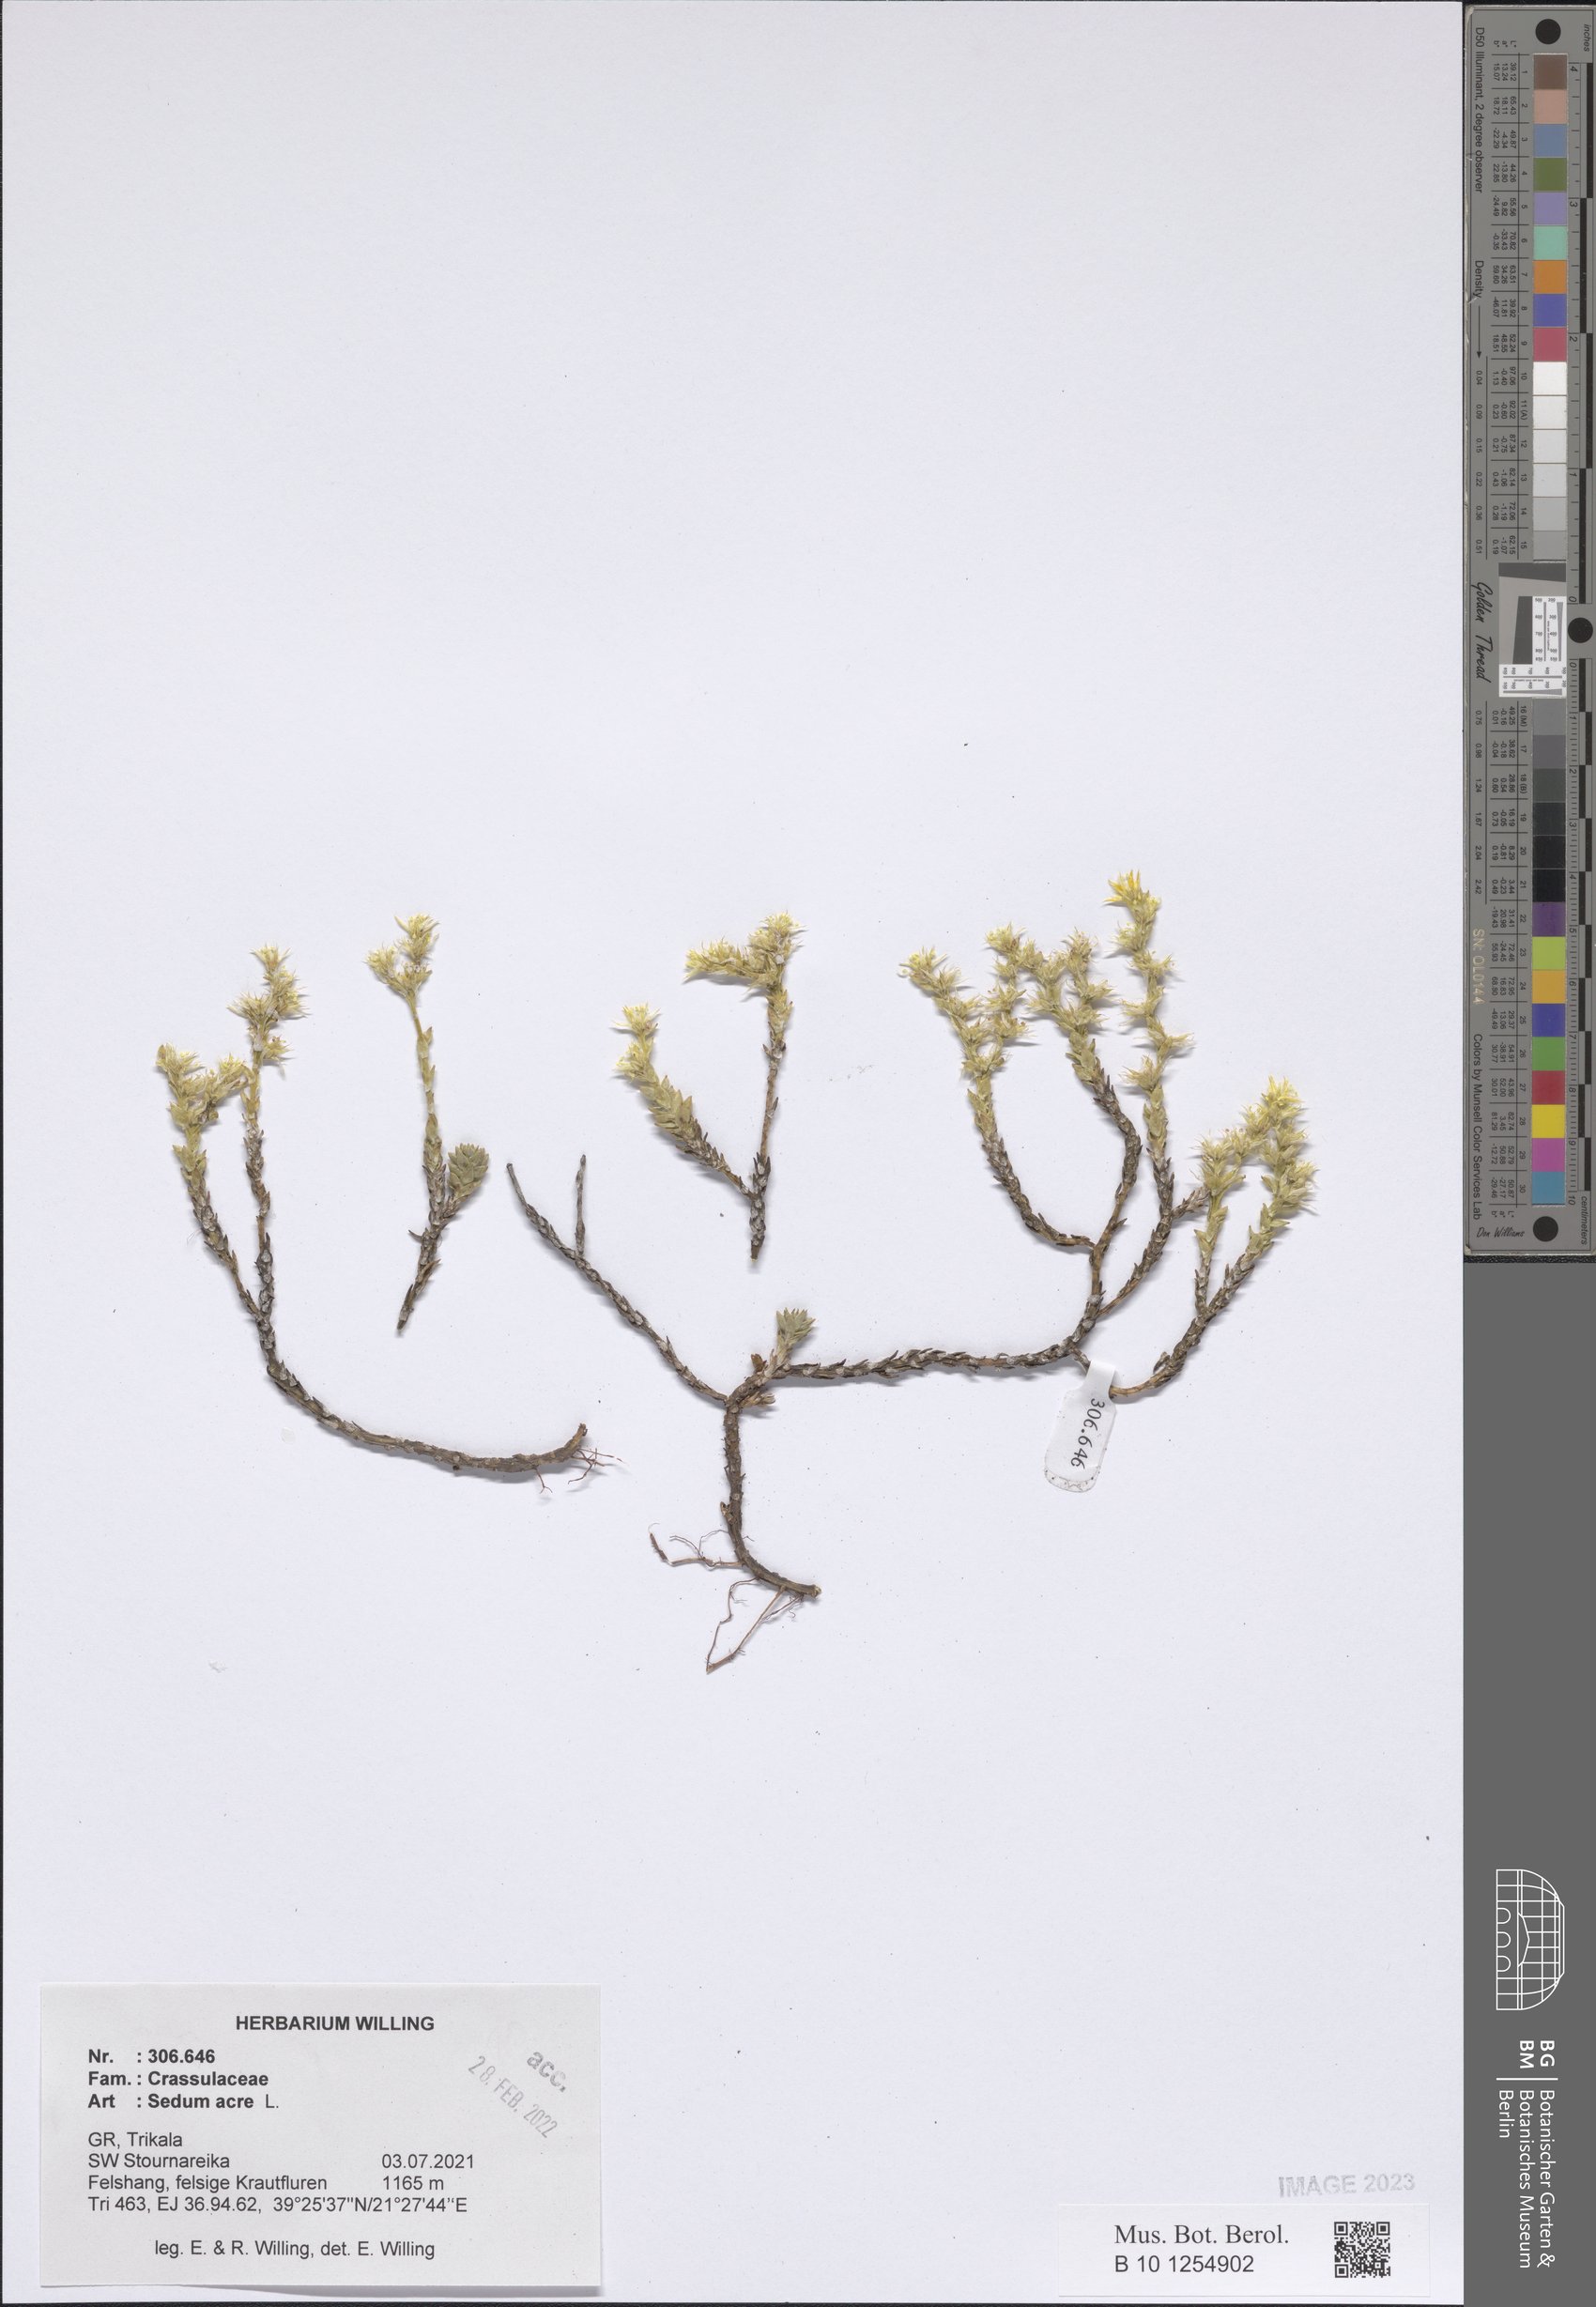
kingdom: Plantae
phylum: Tracheophyta
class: Magnoliopsida
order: Saxifragales
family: Crassulaceae
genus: Sedum
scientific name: Sedum acre
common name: Biting stonecrop
